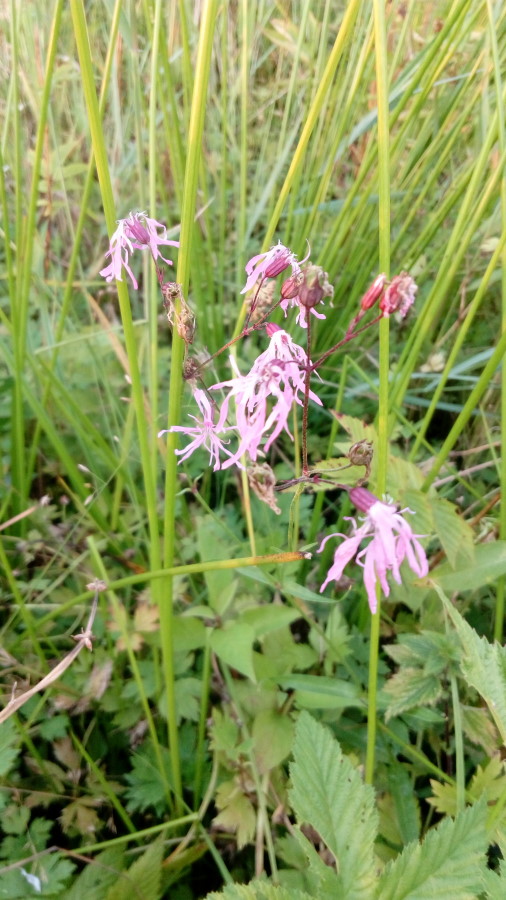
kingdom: Plantae
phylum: Tracheophyta
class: Magnoliopsida
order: Caryophyllales
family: Caryophyllaceae
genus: Silene
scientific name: Silene flos-cuculi
